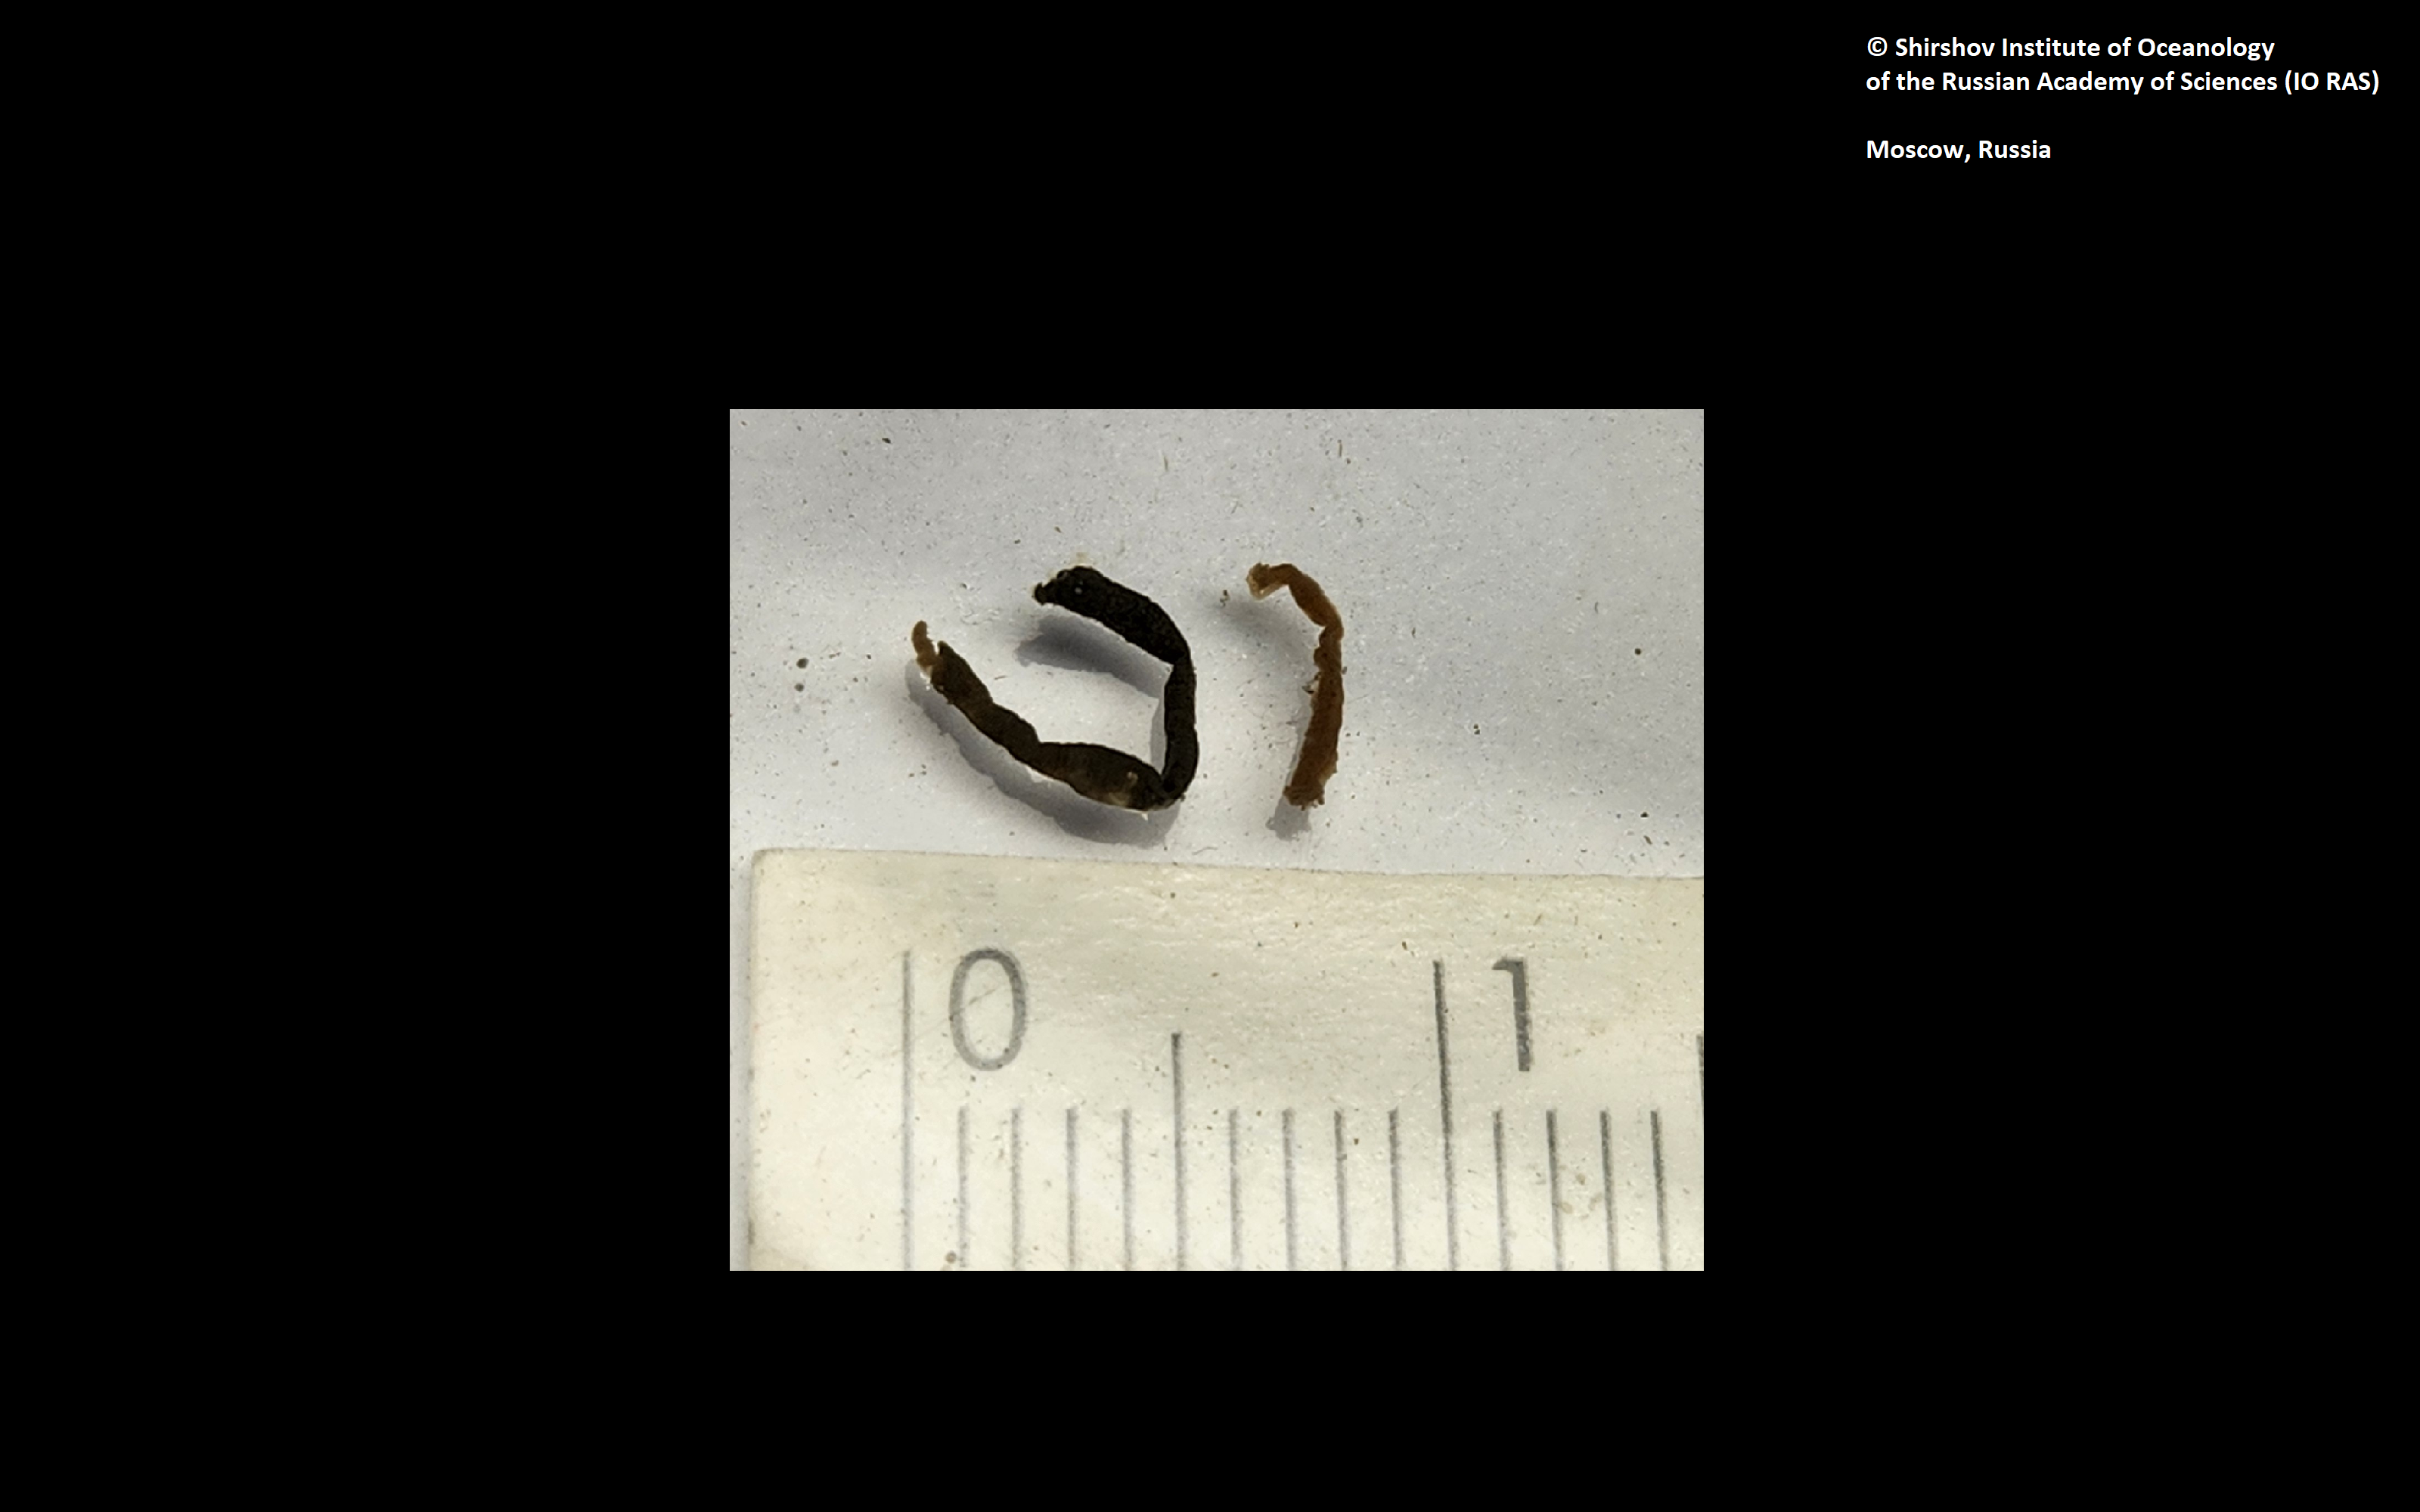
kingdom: Animalia
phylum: Annelida
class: Polychaeta
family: Melinnidae
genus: Melinna
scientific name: Melinna collare
